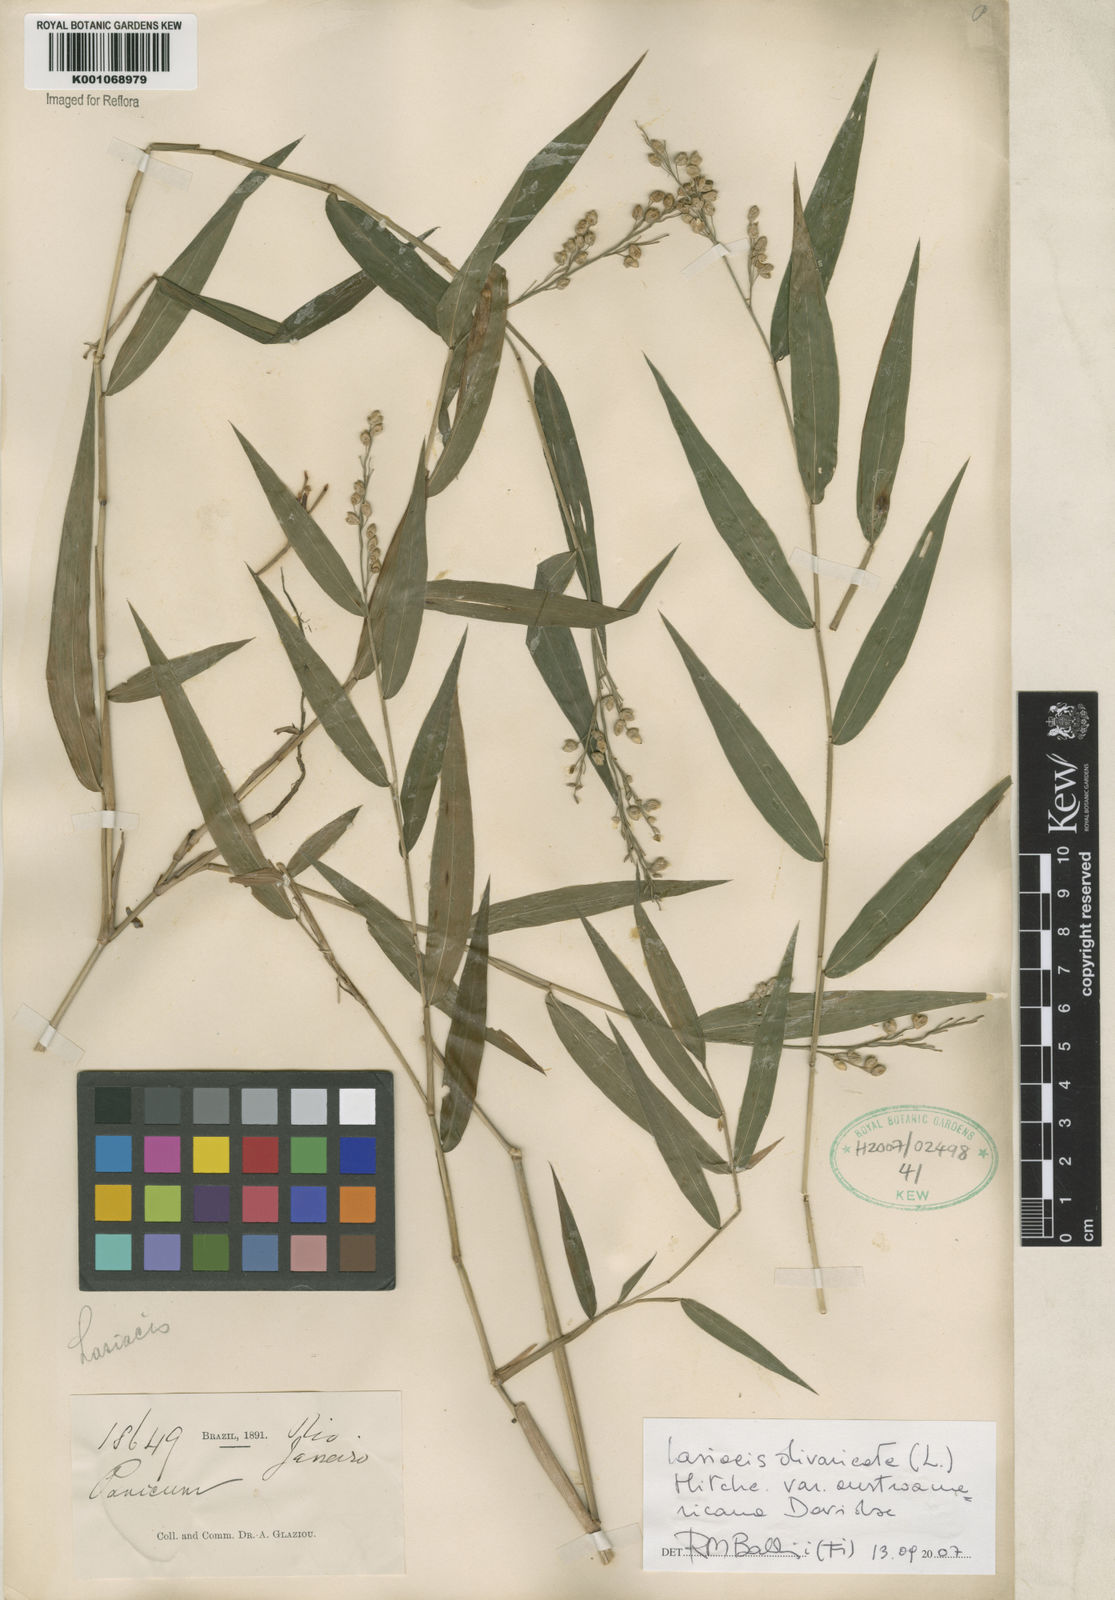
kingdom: Plantae
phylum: Tracheophyta
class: Liliopsida
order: Poales
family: Poaceae
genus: Lasiacis
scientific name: Lasiacis divaricata
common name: Smallcane
